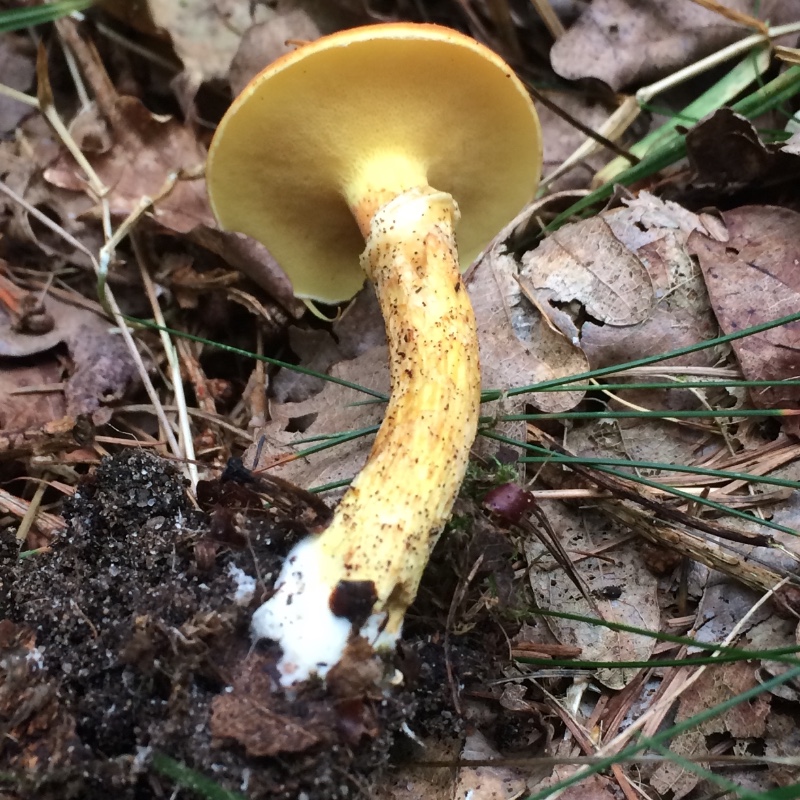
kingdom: Fungi
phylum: Basidiomycota
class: Agaricomycetes
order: Boletales
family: Suillaceae
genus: Suillus
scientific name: Suillus grevillei
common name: lærke-slimrørhat
